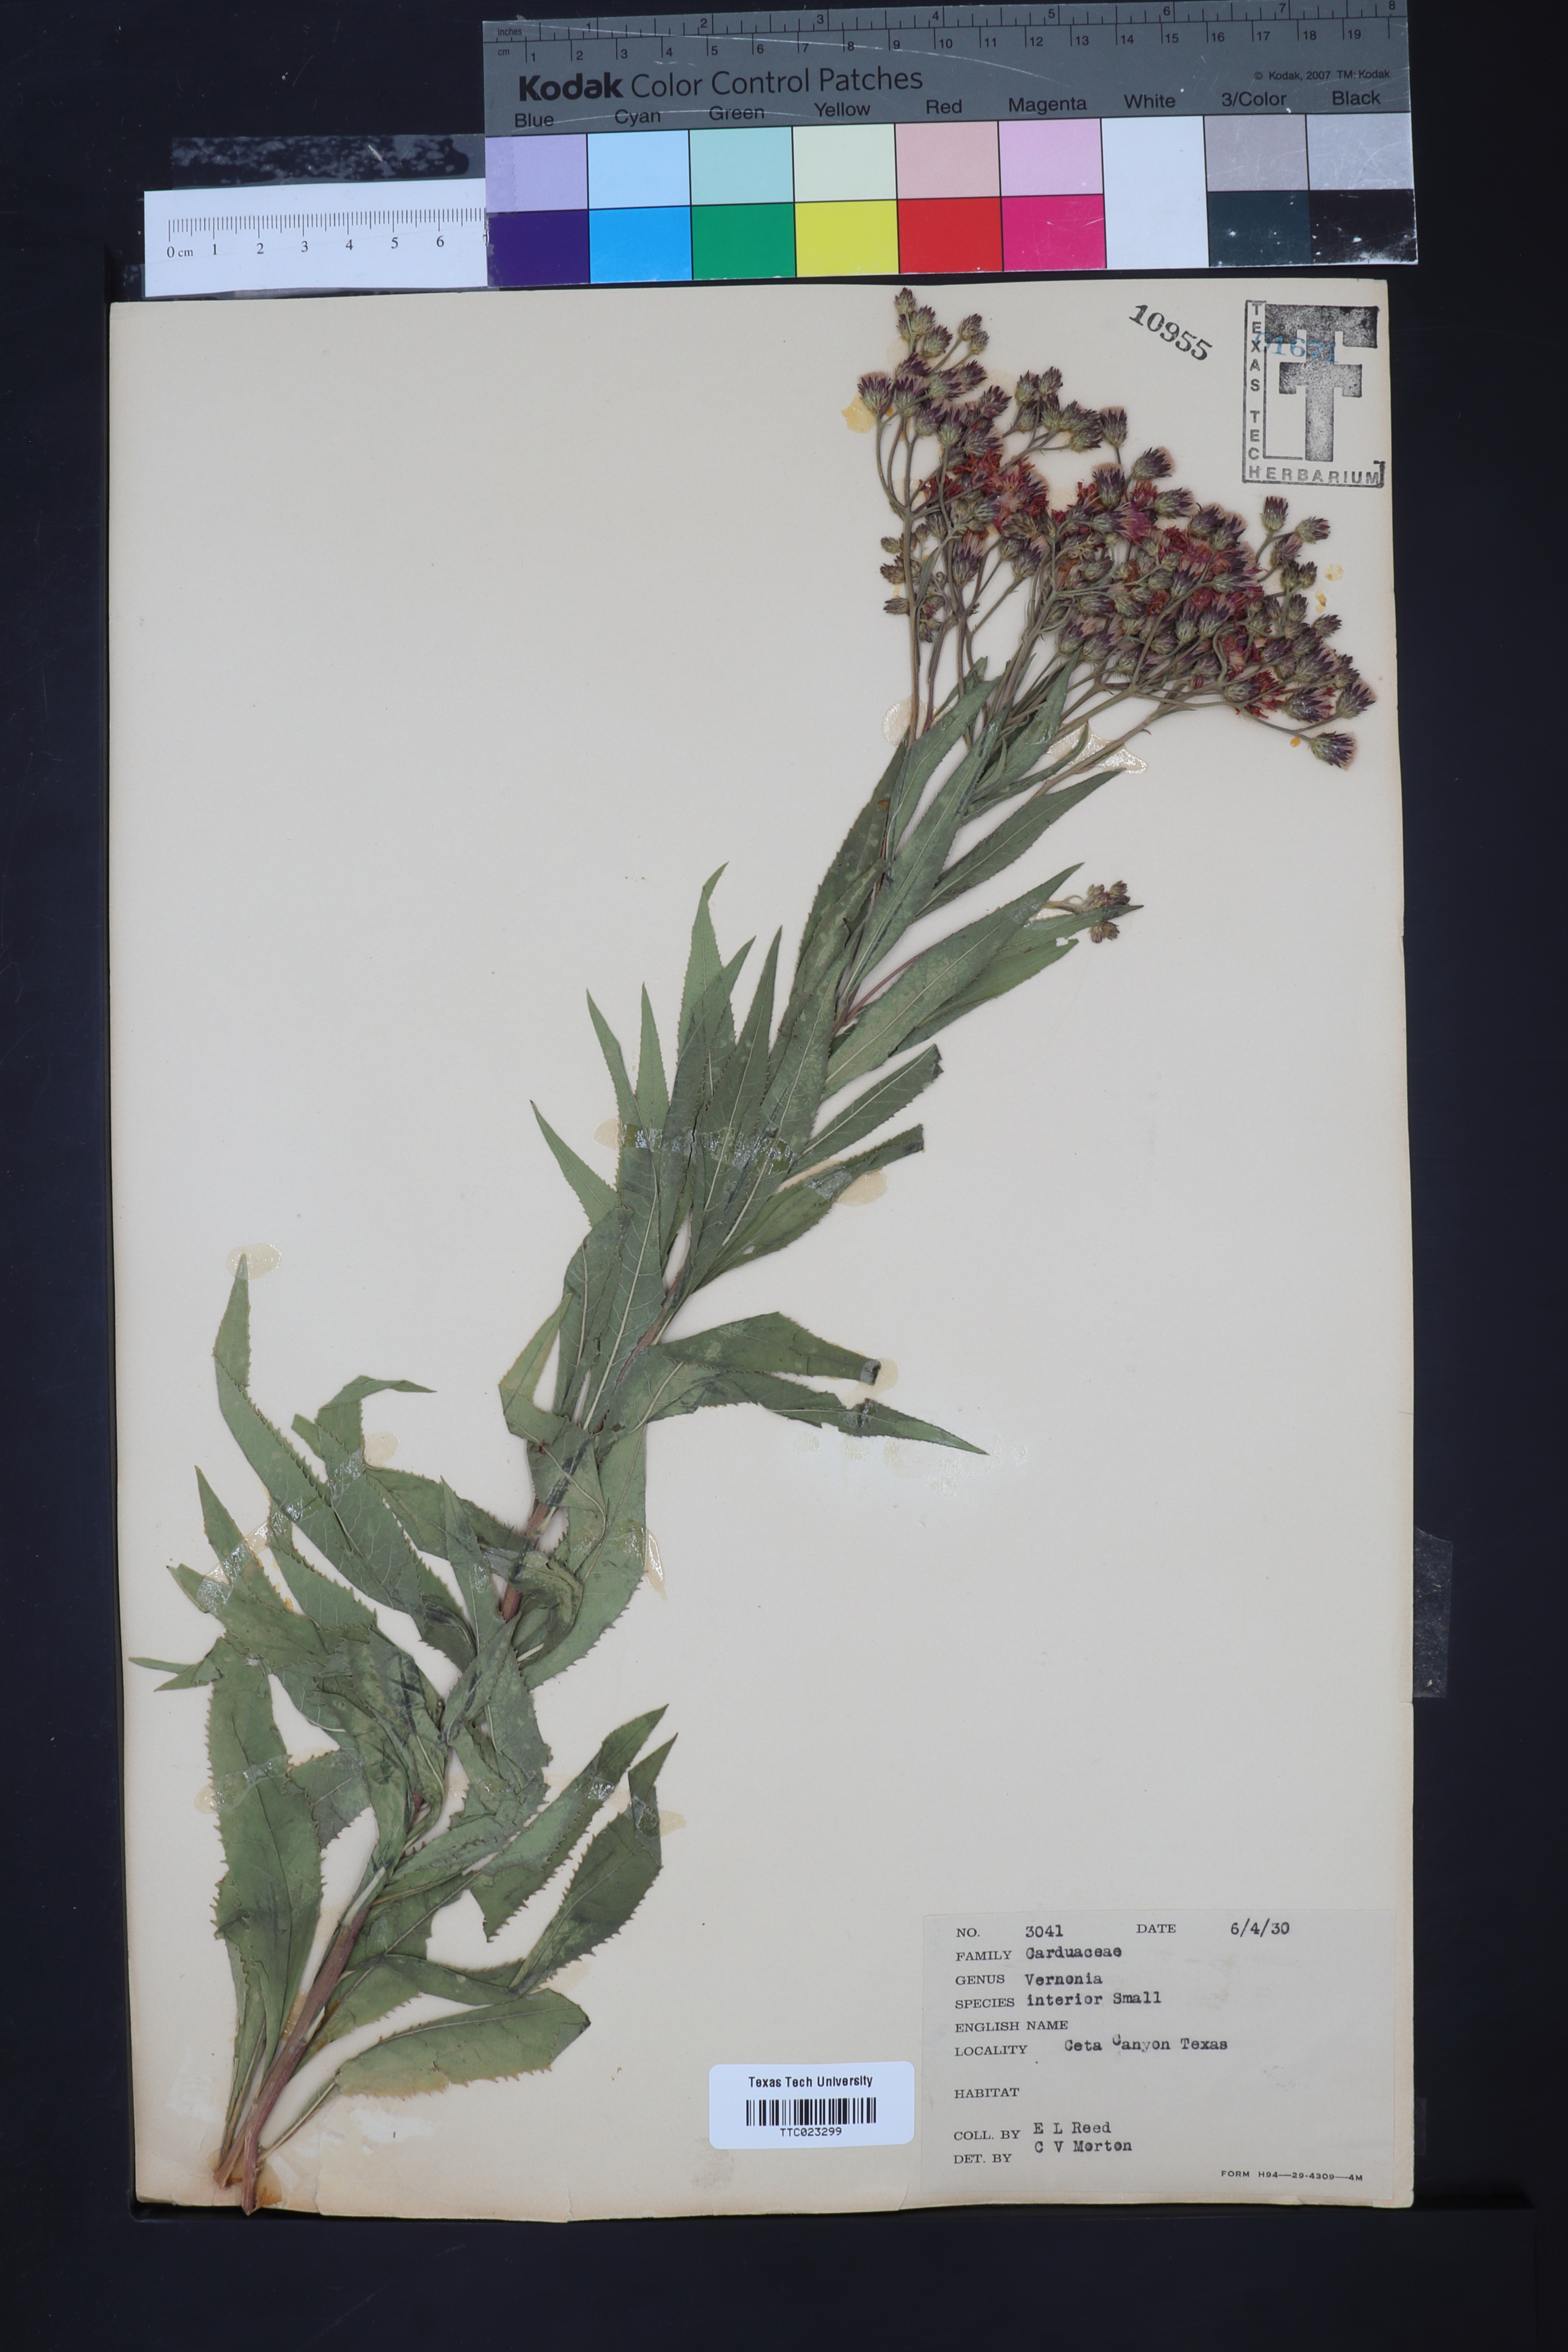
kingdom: Plantae
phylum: Tracheophyta
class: Magnoliopsida
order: Asterales
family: Asteraceae
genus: Vernonia
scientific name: Vernonia baldwinii
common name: Western ironweed
